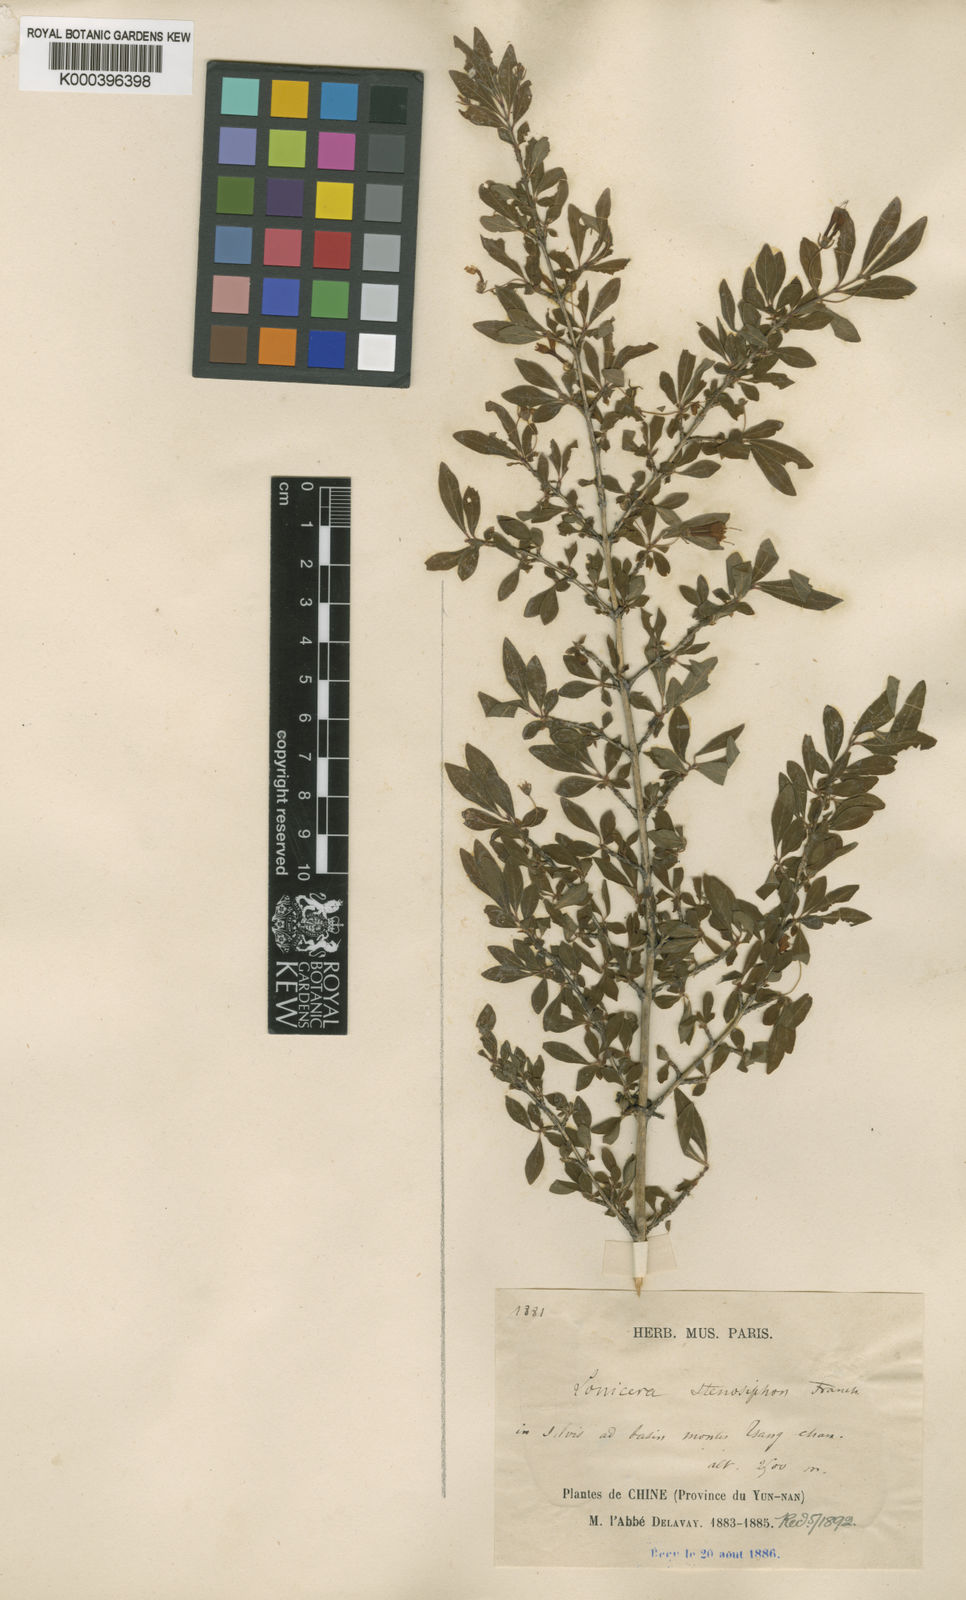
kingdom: Plantae
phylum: Tracheophyta
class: Magnoliopsida
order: Dipsacales
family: Caprifoliaceae
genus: Lonicera
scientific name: Lonicera tangutica
